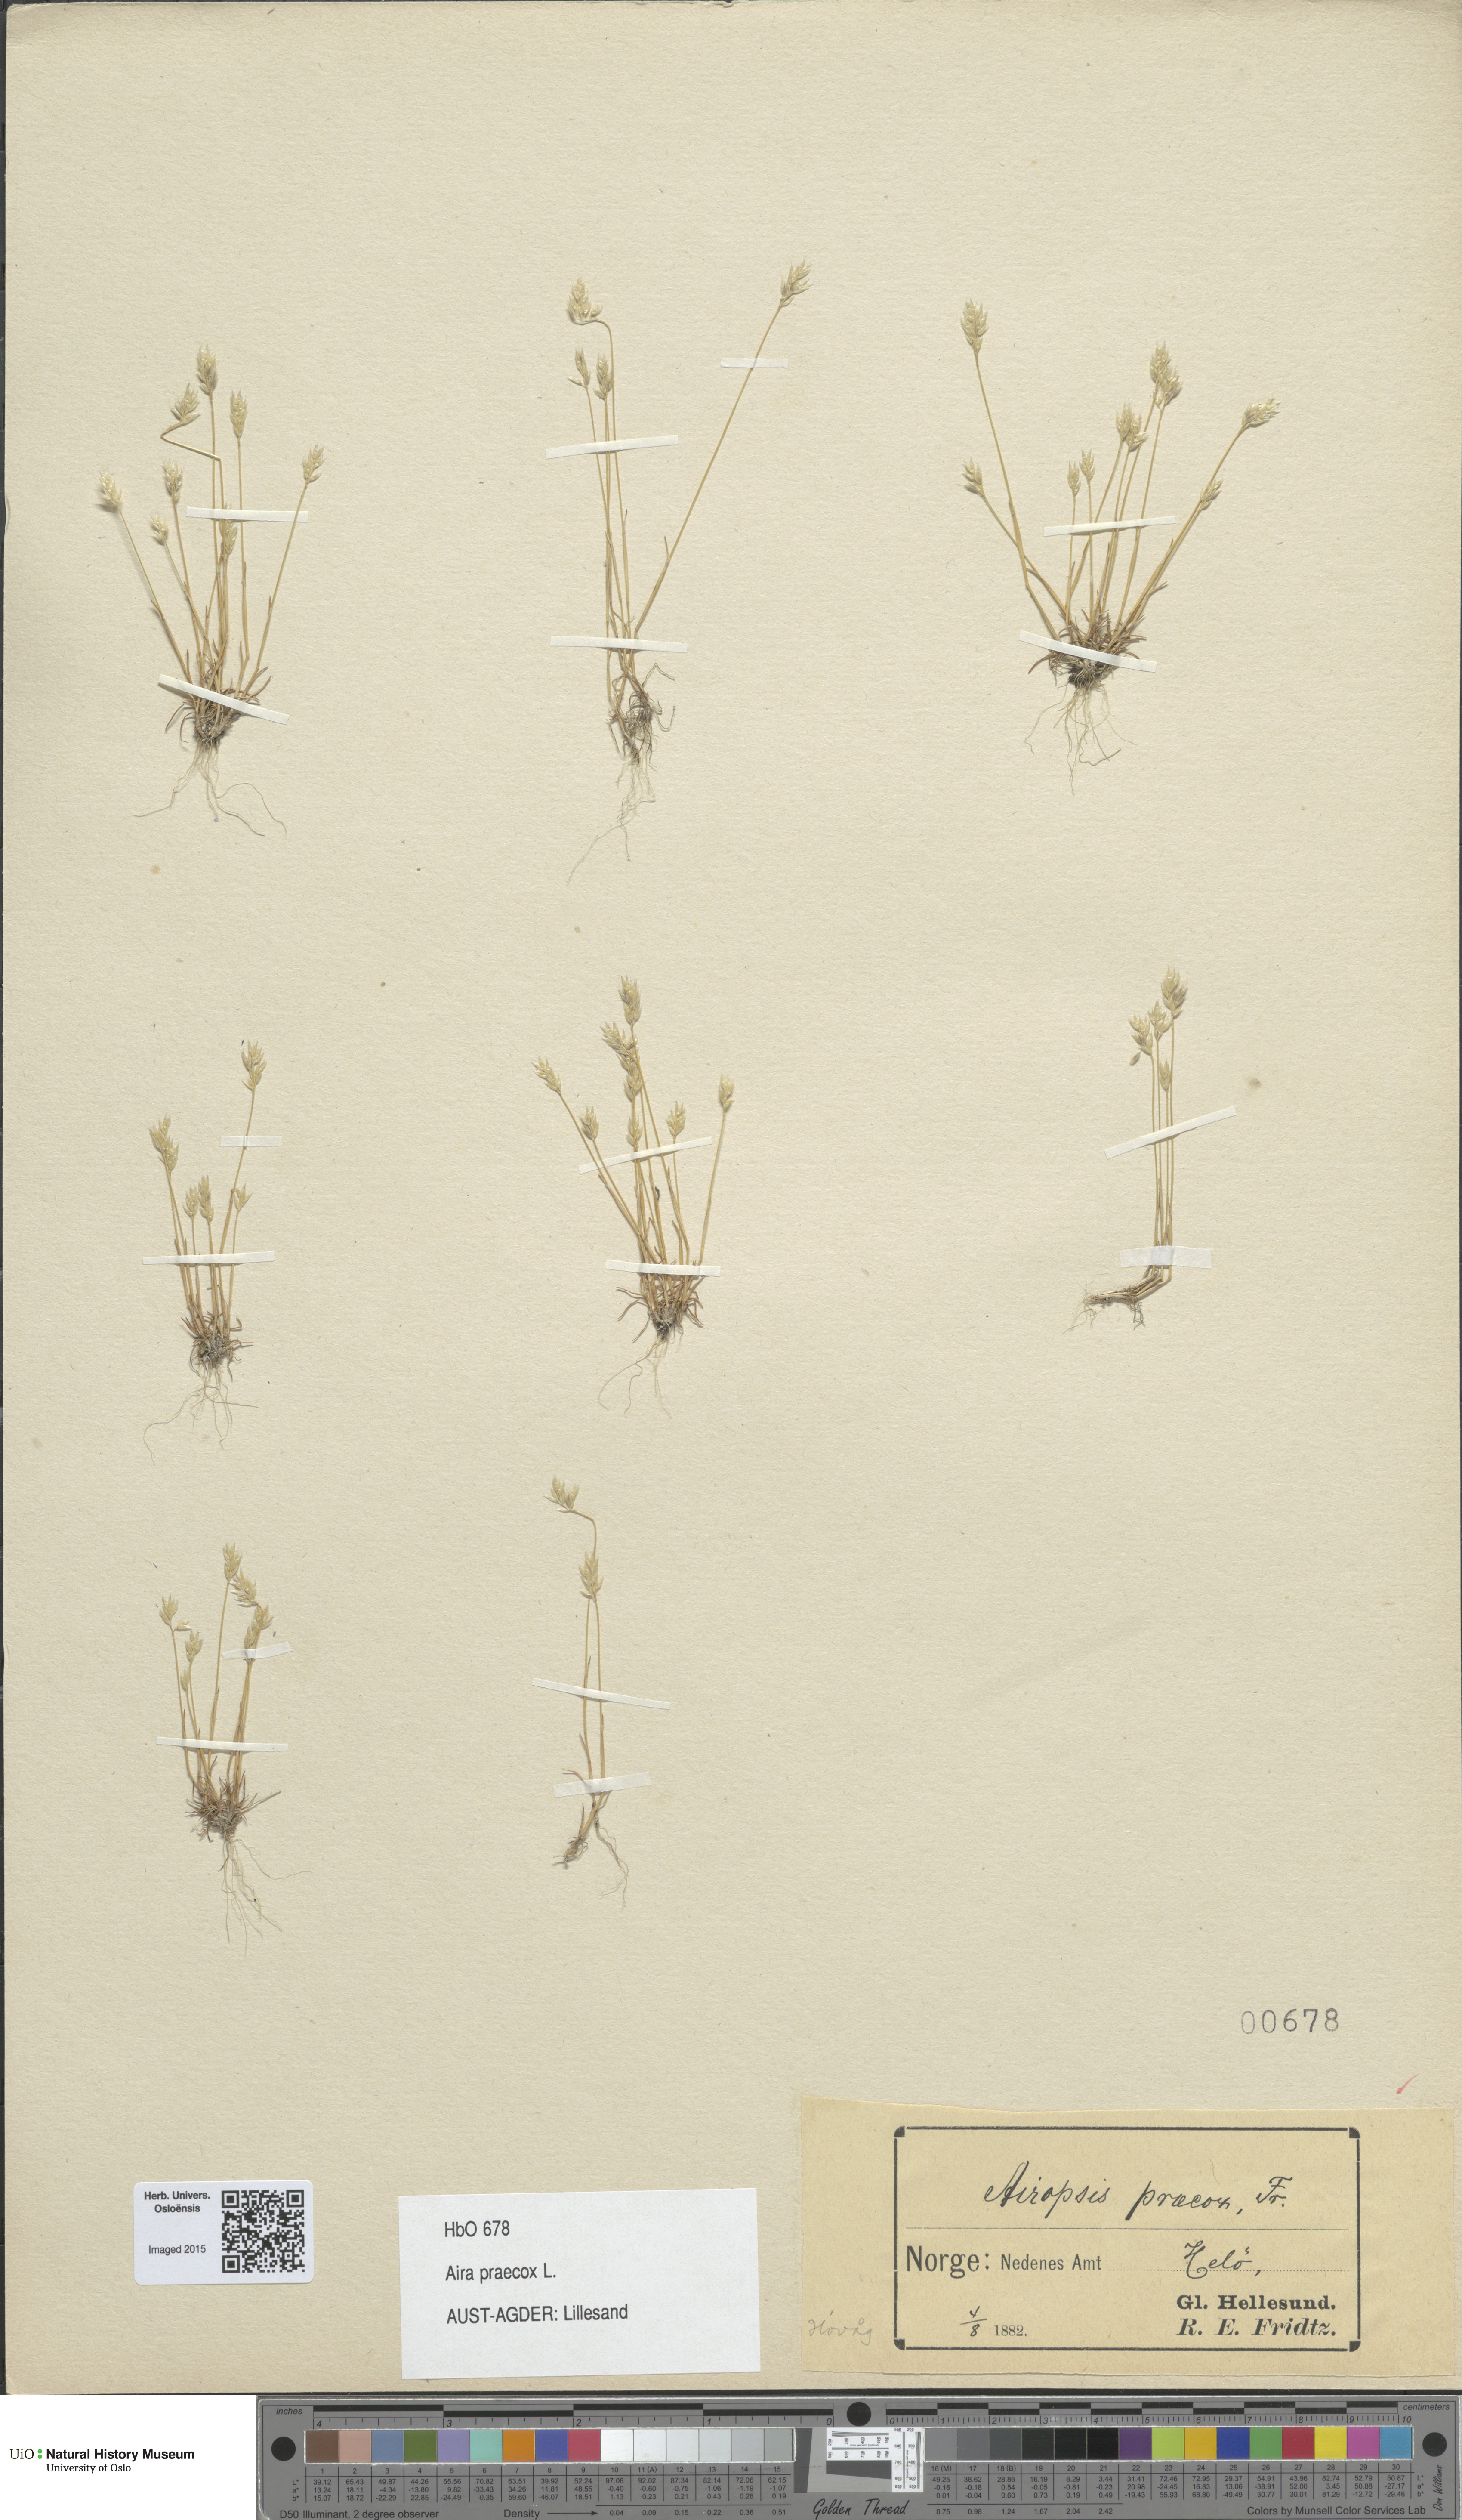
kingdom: Plantae
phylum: Tracheophyta
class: Liliopsida
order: Poales
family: Poaceae
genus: Aira
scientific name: Aira praecox
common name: Early hair-grass
